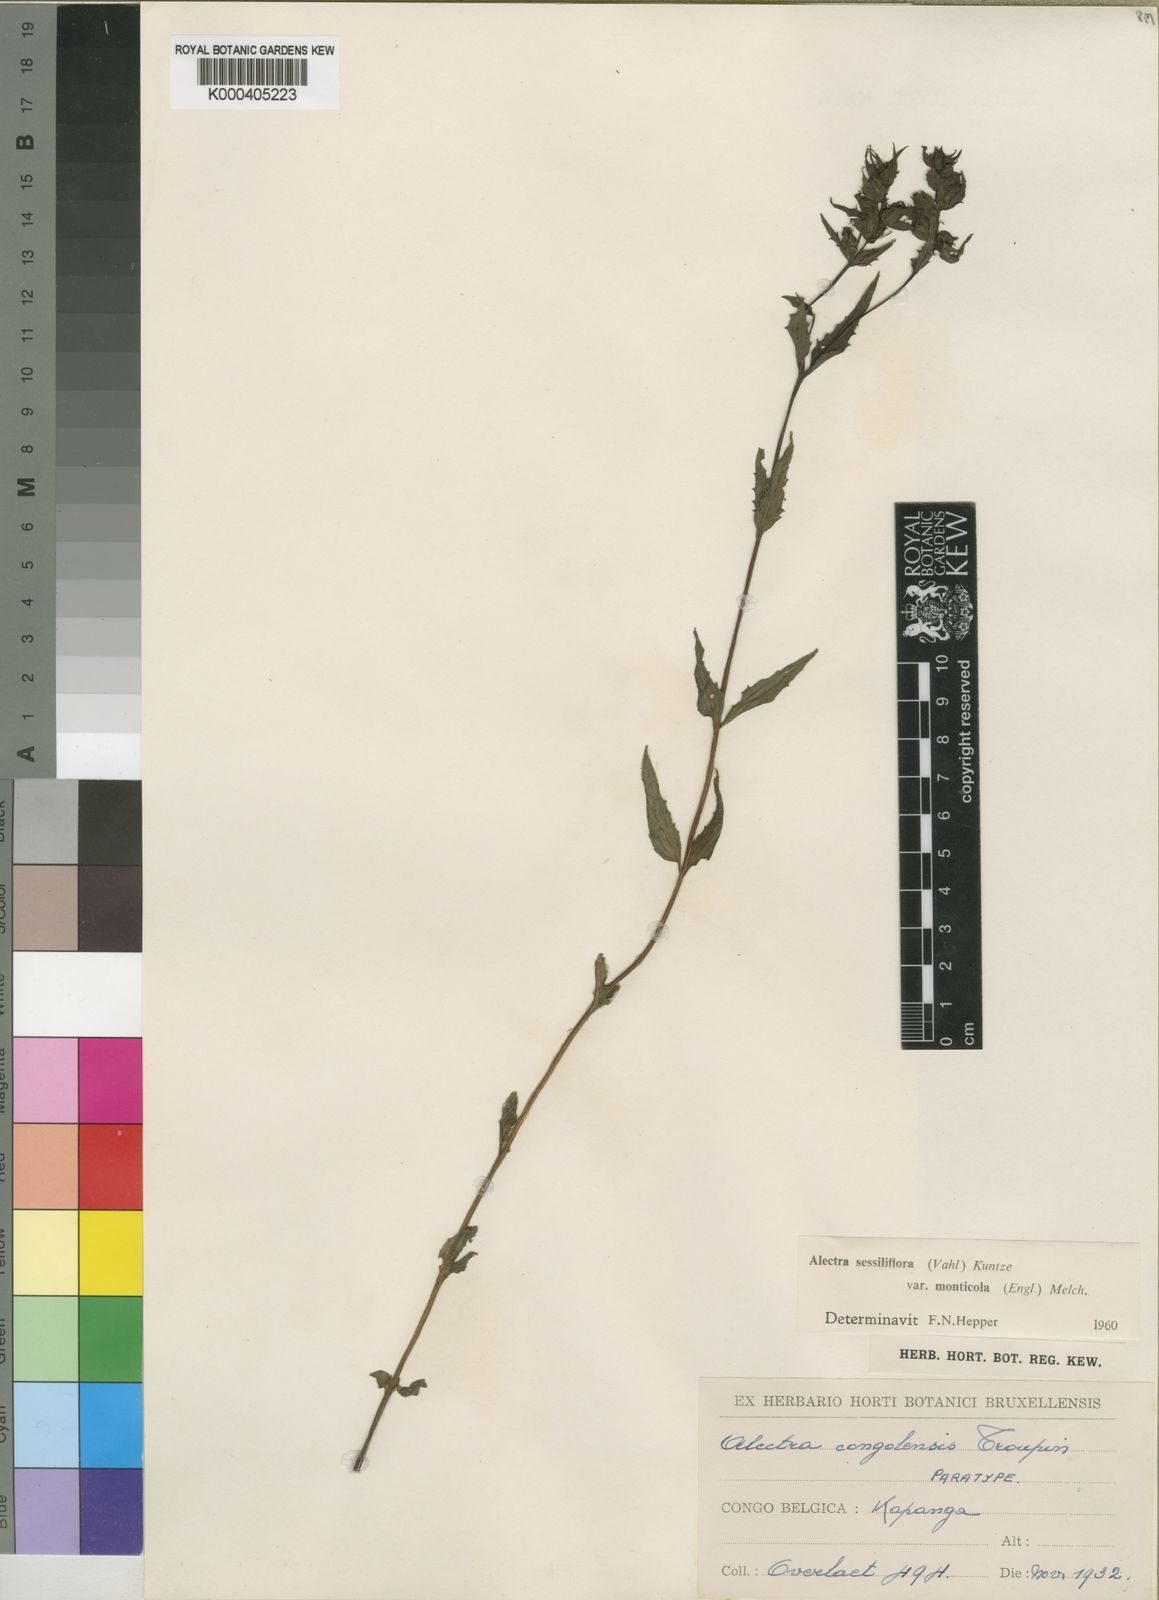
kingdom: Plantae
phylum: Tracheophyta
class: Magnoliopsida
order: Lamiales
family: Orobanchaceae
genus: Alectra
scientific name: Alectra sessiliflora
